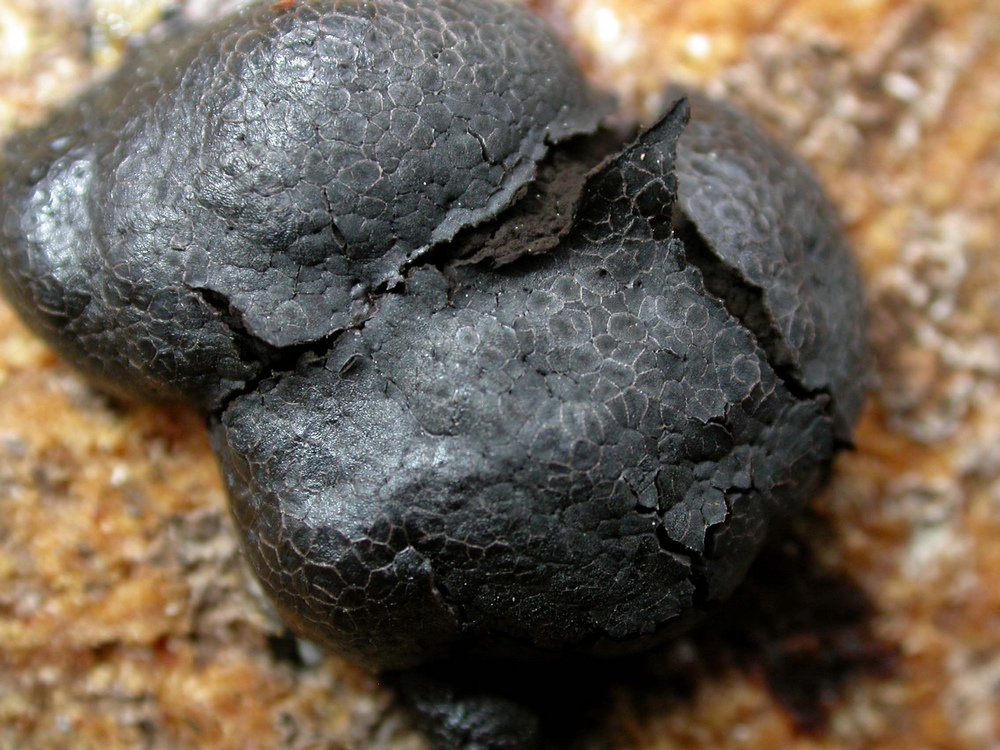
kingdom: Protozoa
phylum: Mycetozoa
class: Myxomycetes
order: Stemonitidales
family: Stemonitidaceae
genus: Amaurochaete
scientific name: Amaurochaete atra
